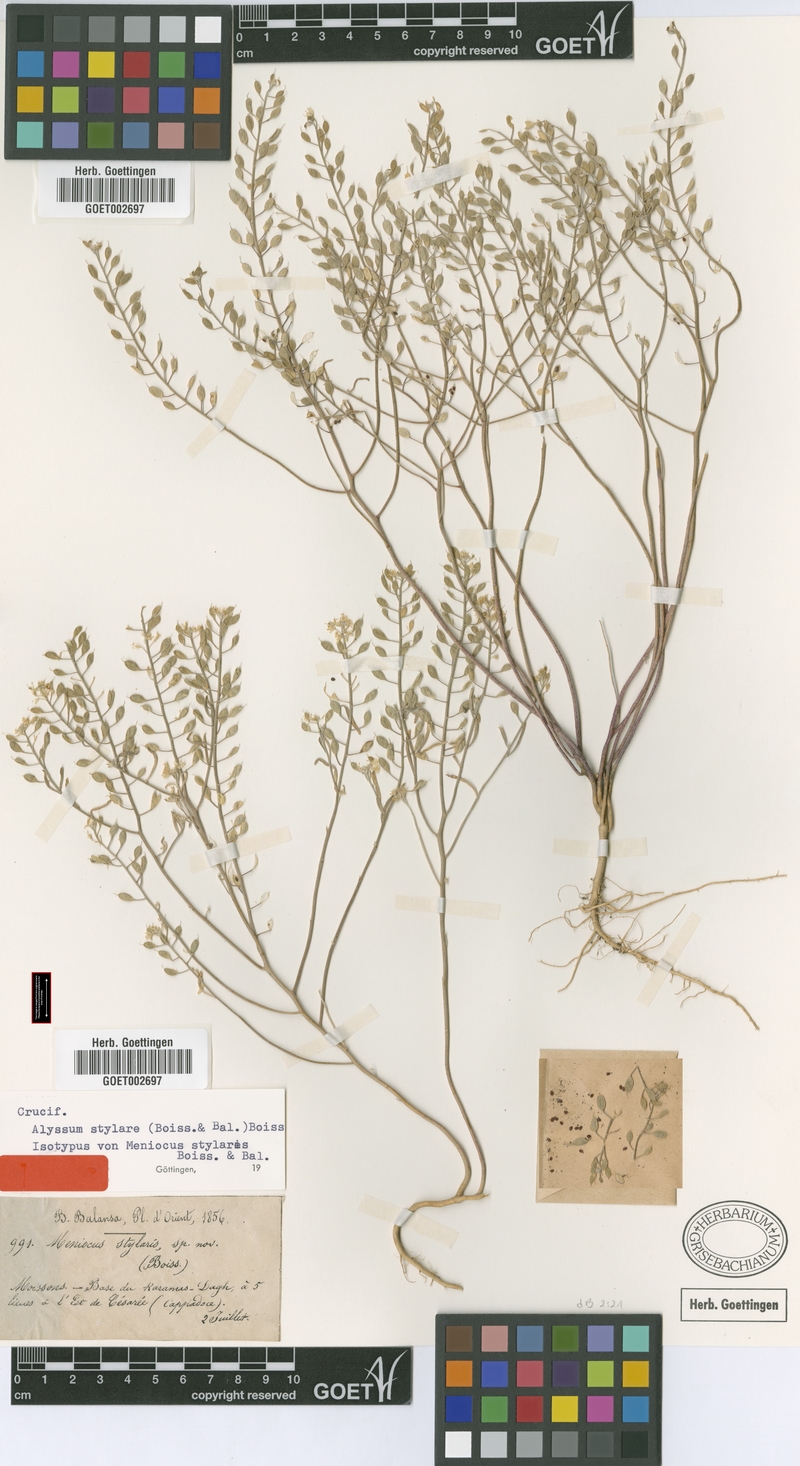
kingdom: Plantae
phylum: Tracheophyta
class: Magnoliopsida
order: Brassicales
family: Brassicaceae
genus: Meniocus
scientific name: Meniocus stylaris
